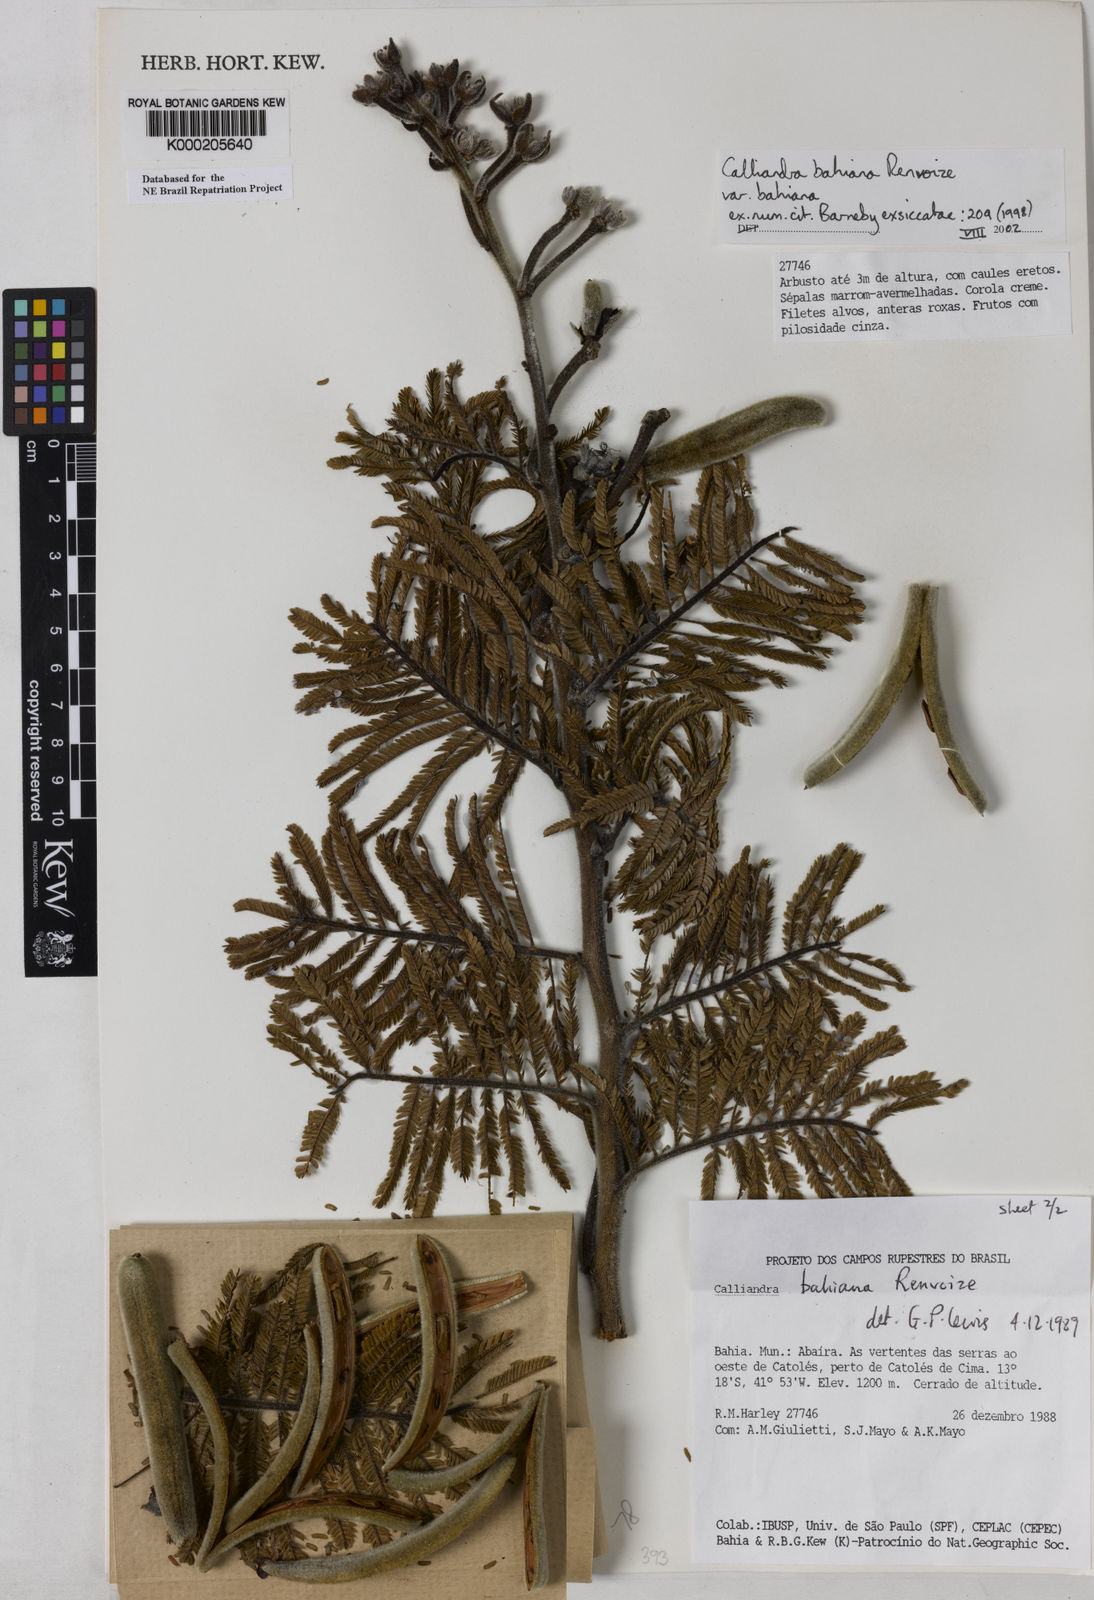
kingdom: Plantae
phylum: Tracheophyta
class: Magnoliopsida
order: Fabales
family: Fabaceae
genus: Calliandra
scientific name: Calliandra bahiana
